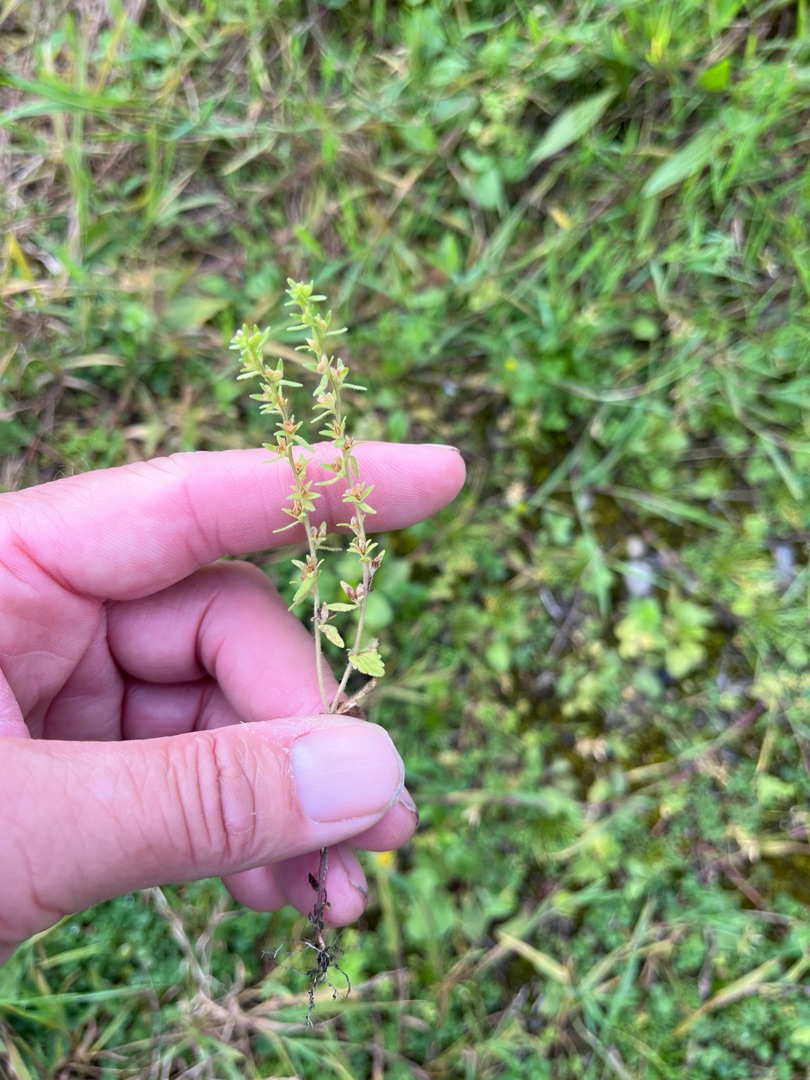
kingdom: Plantae
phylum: Tracheophyta
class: Magnoliopsida
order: Lamiales
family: Plantaginaceae
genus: Veronica
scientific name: Veronica arvensis
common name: Mark-ærenpris
